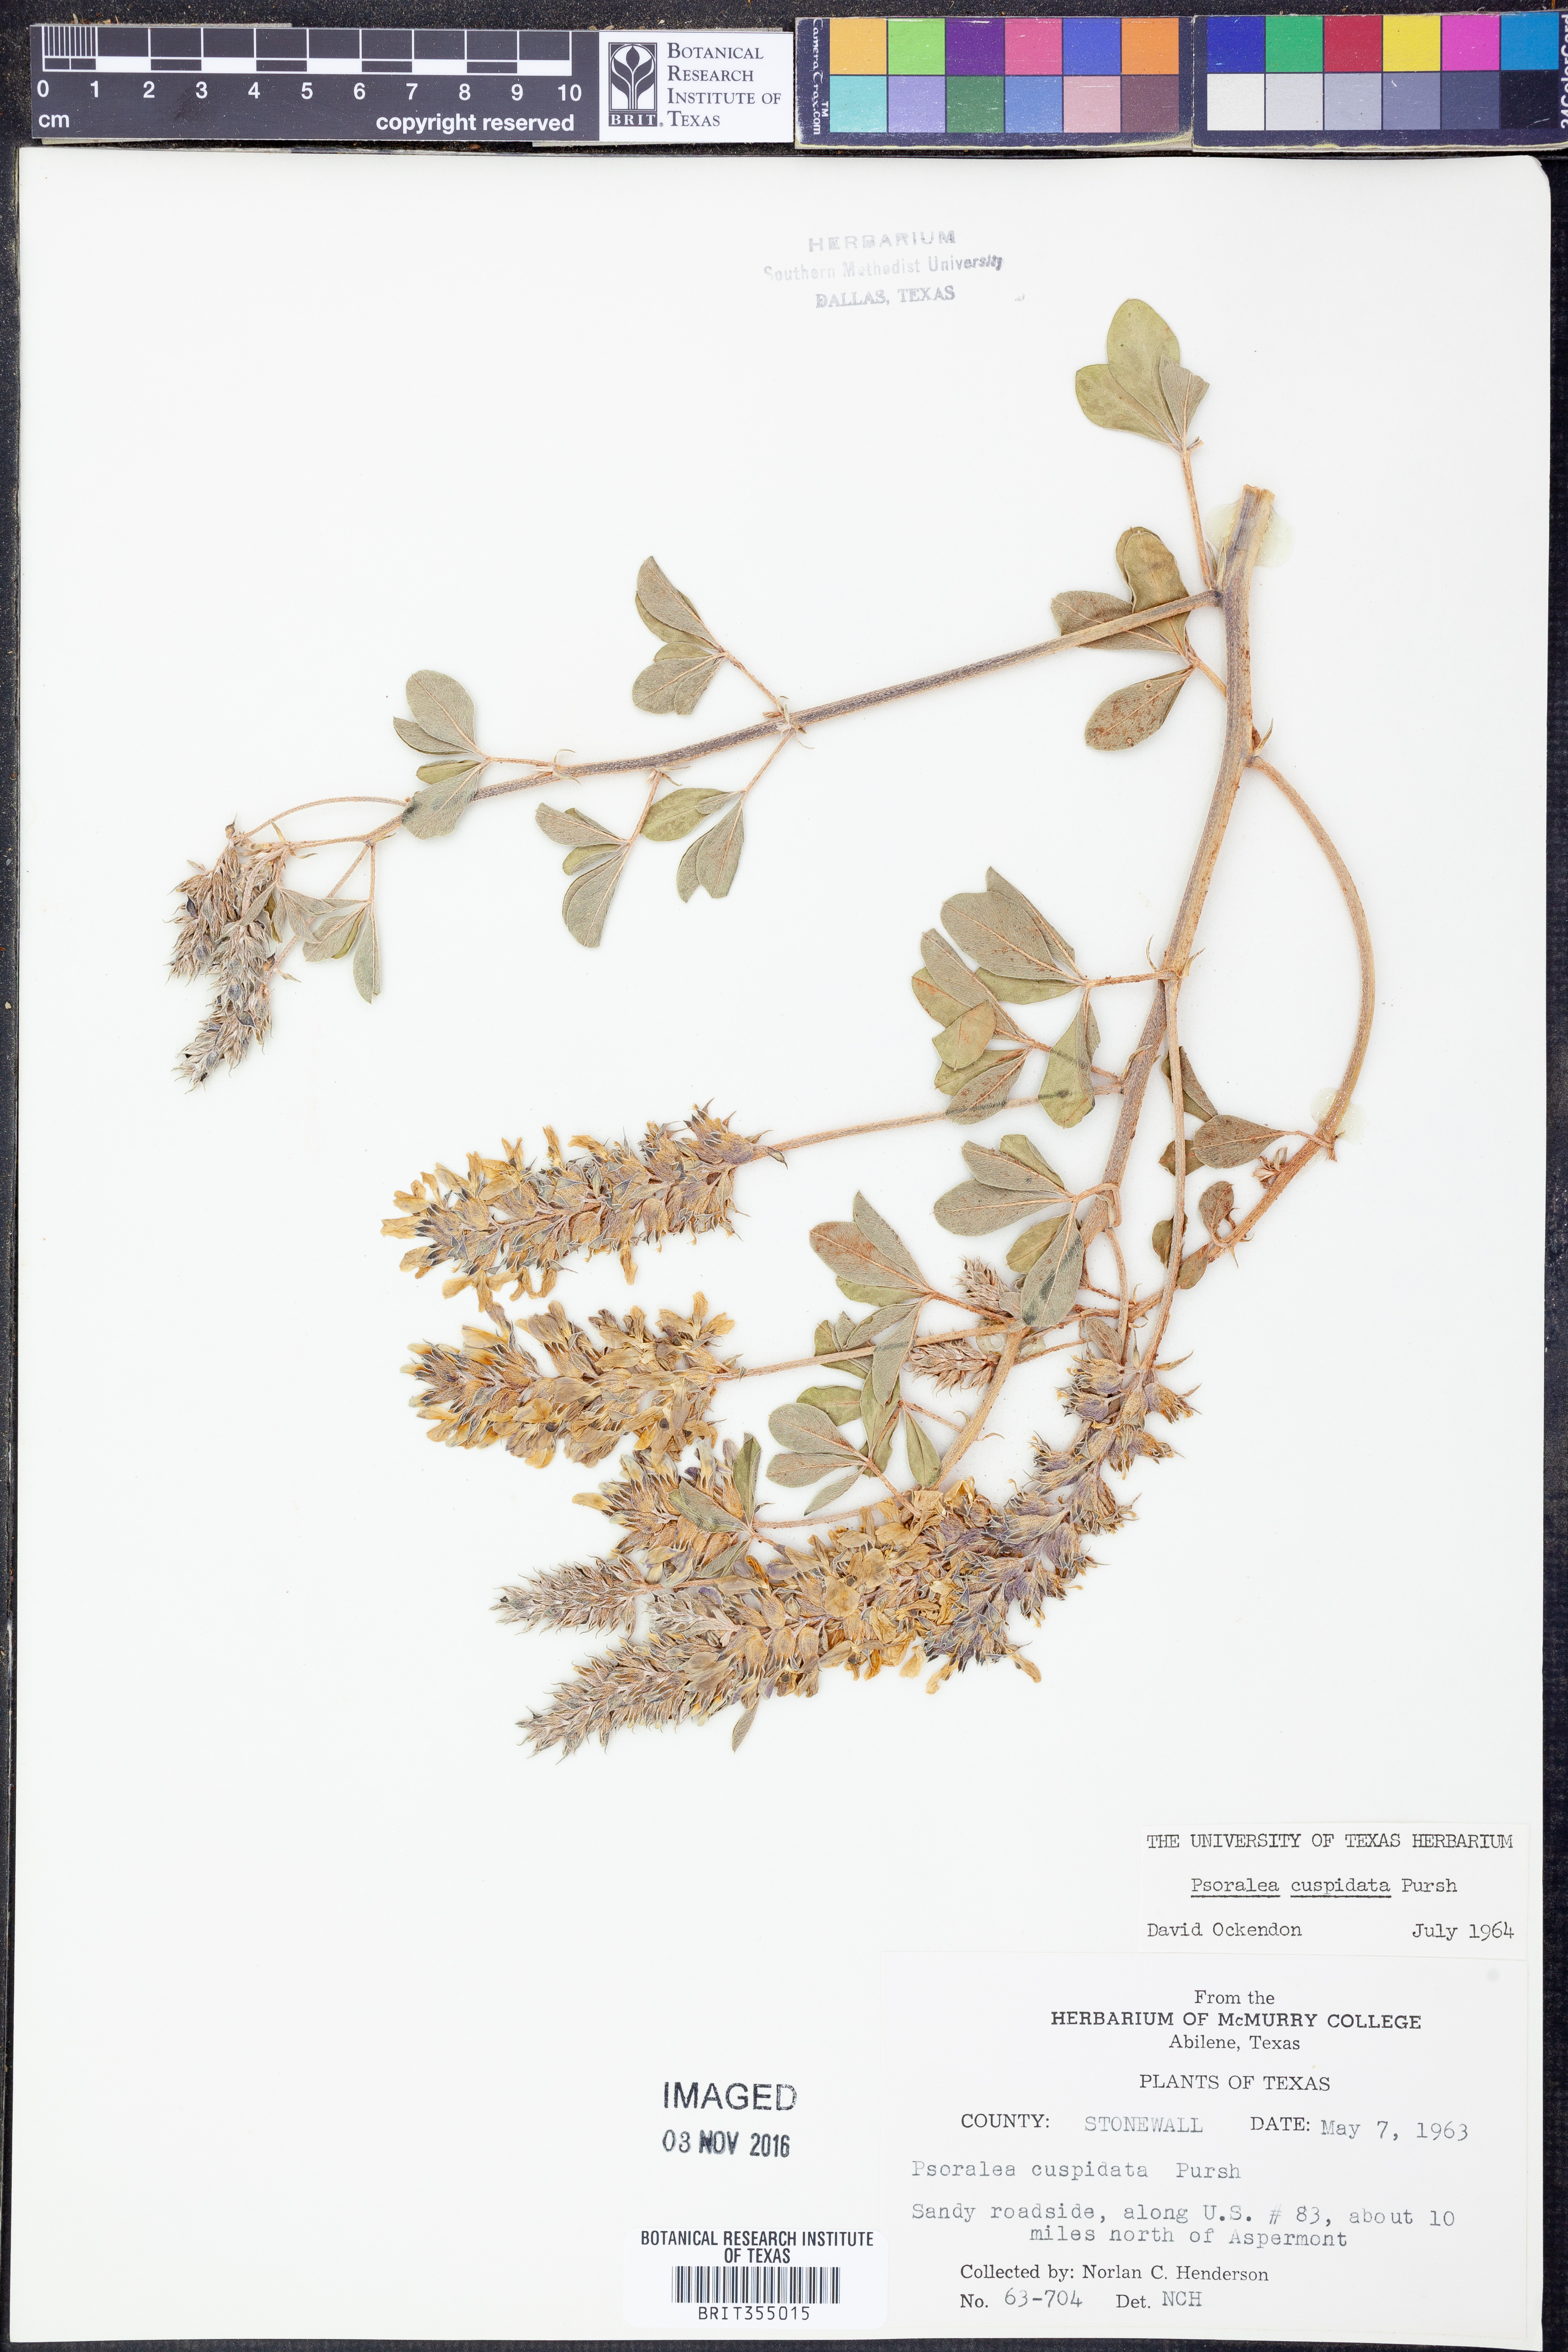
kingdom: Plantae
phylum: Tracheophyta
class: Magnoliopsida
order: Fabales
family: Fabaceae
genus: Pediomelum
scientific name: Pediomelum cuspidatum
